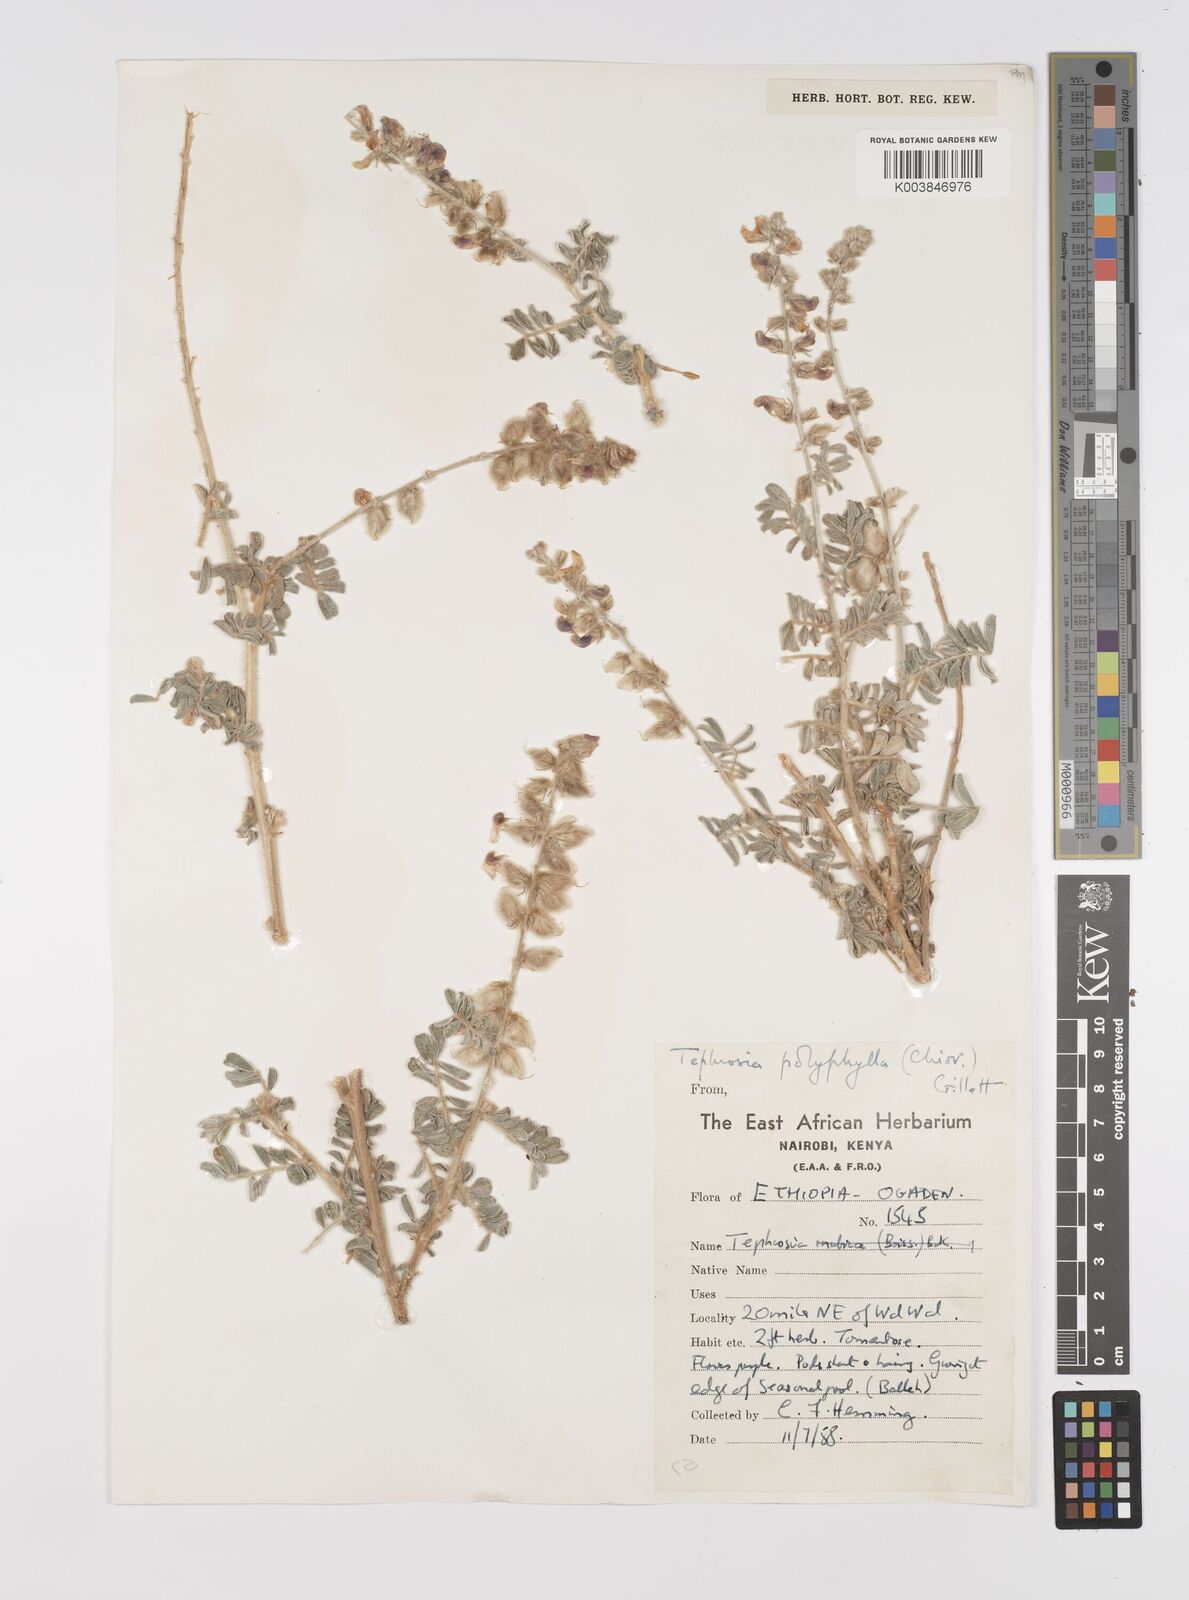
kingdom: Plantae
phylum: Tracheophyta
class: Magnoliopsida
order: Fabales
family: Fabaceae
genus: Tephrosia
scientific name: Tephrosia polyphylla
